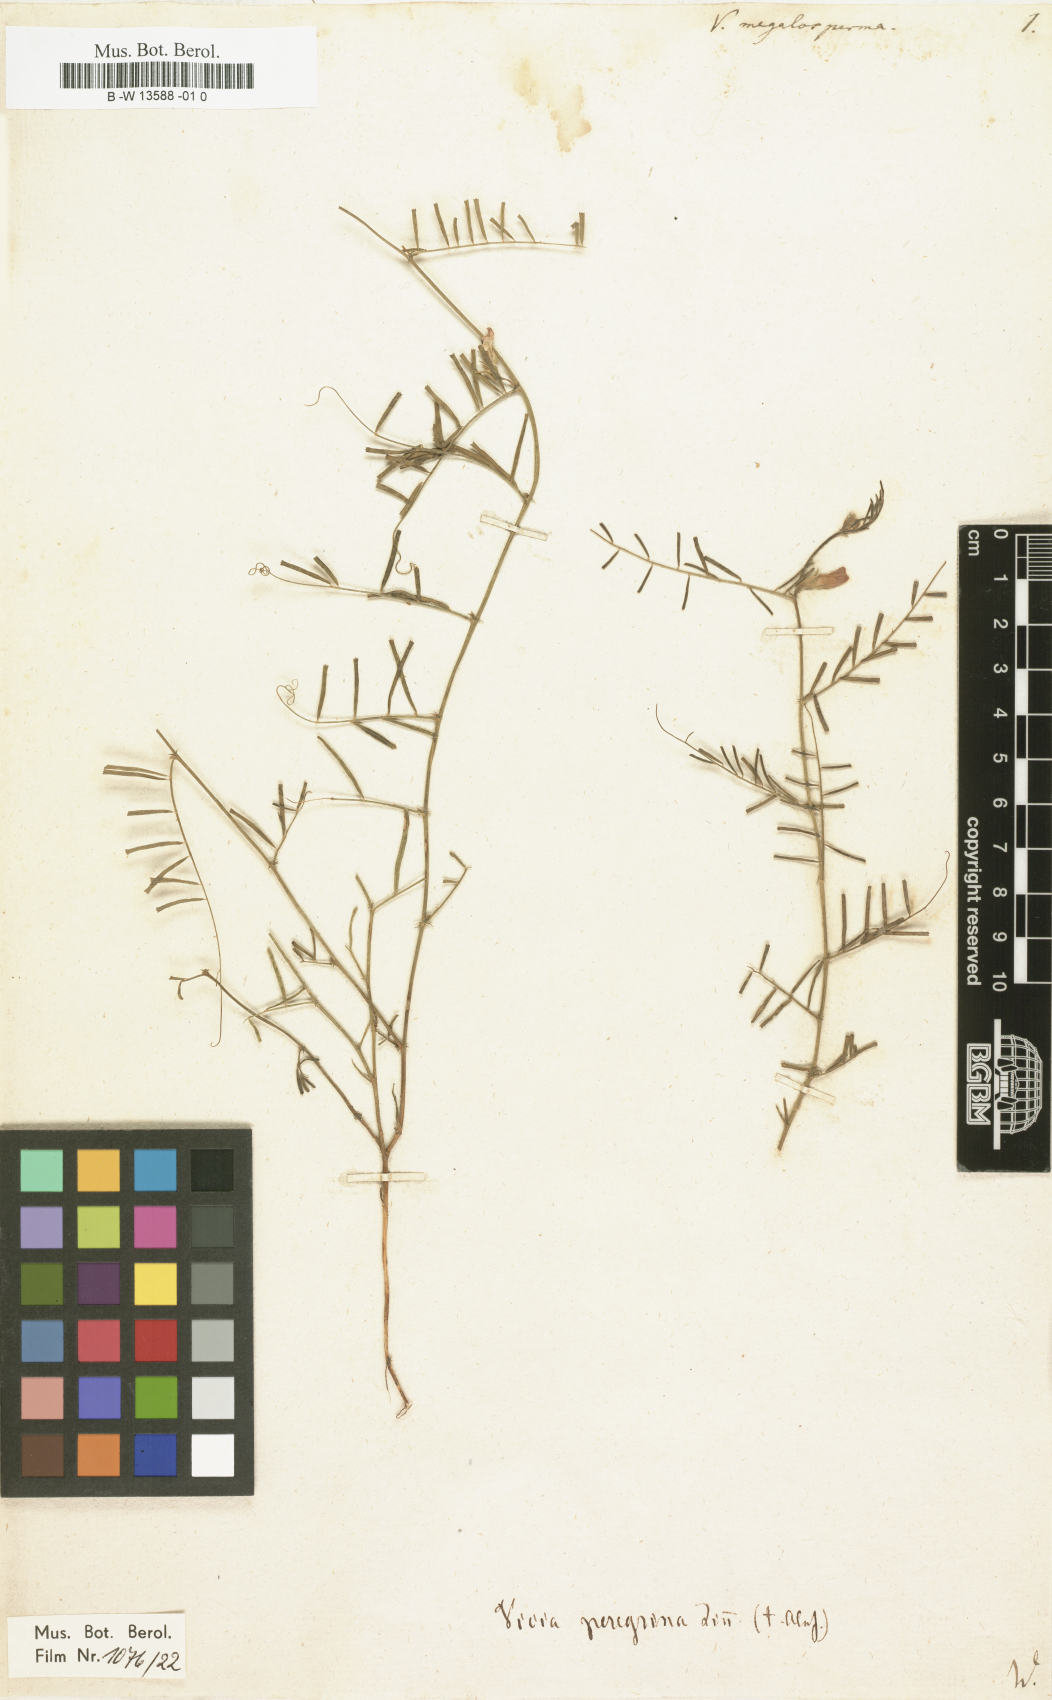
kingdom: Plantae
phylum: Tracheophyta
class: Magnoliopsida
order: Fabales
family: Fabaceae
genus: Vicia
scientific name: Vicia peregrina
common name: Broad-pod vetch
